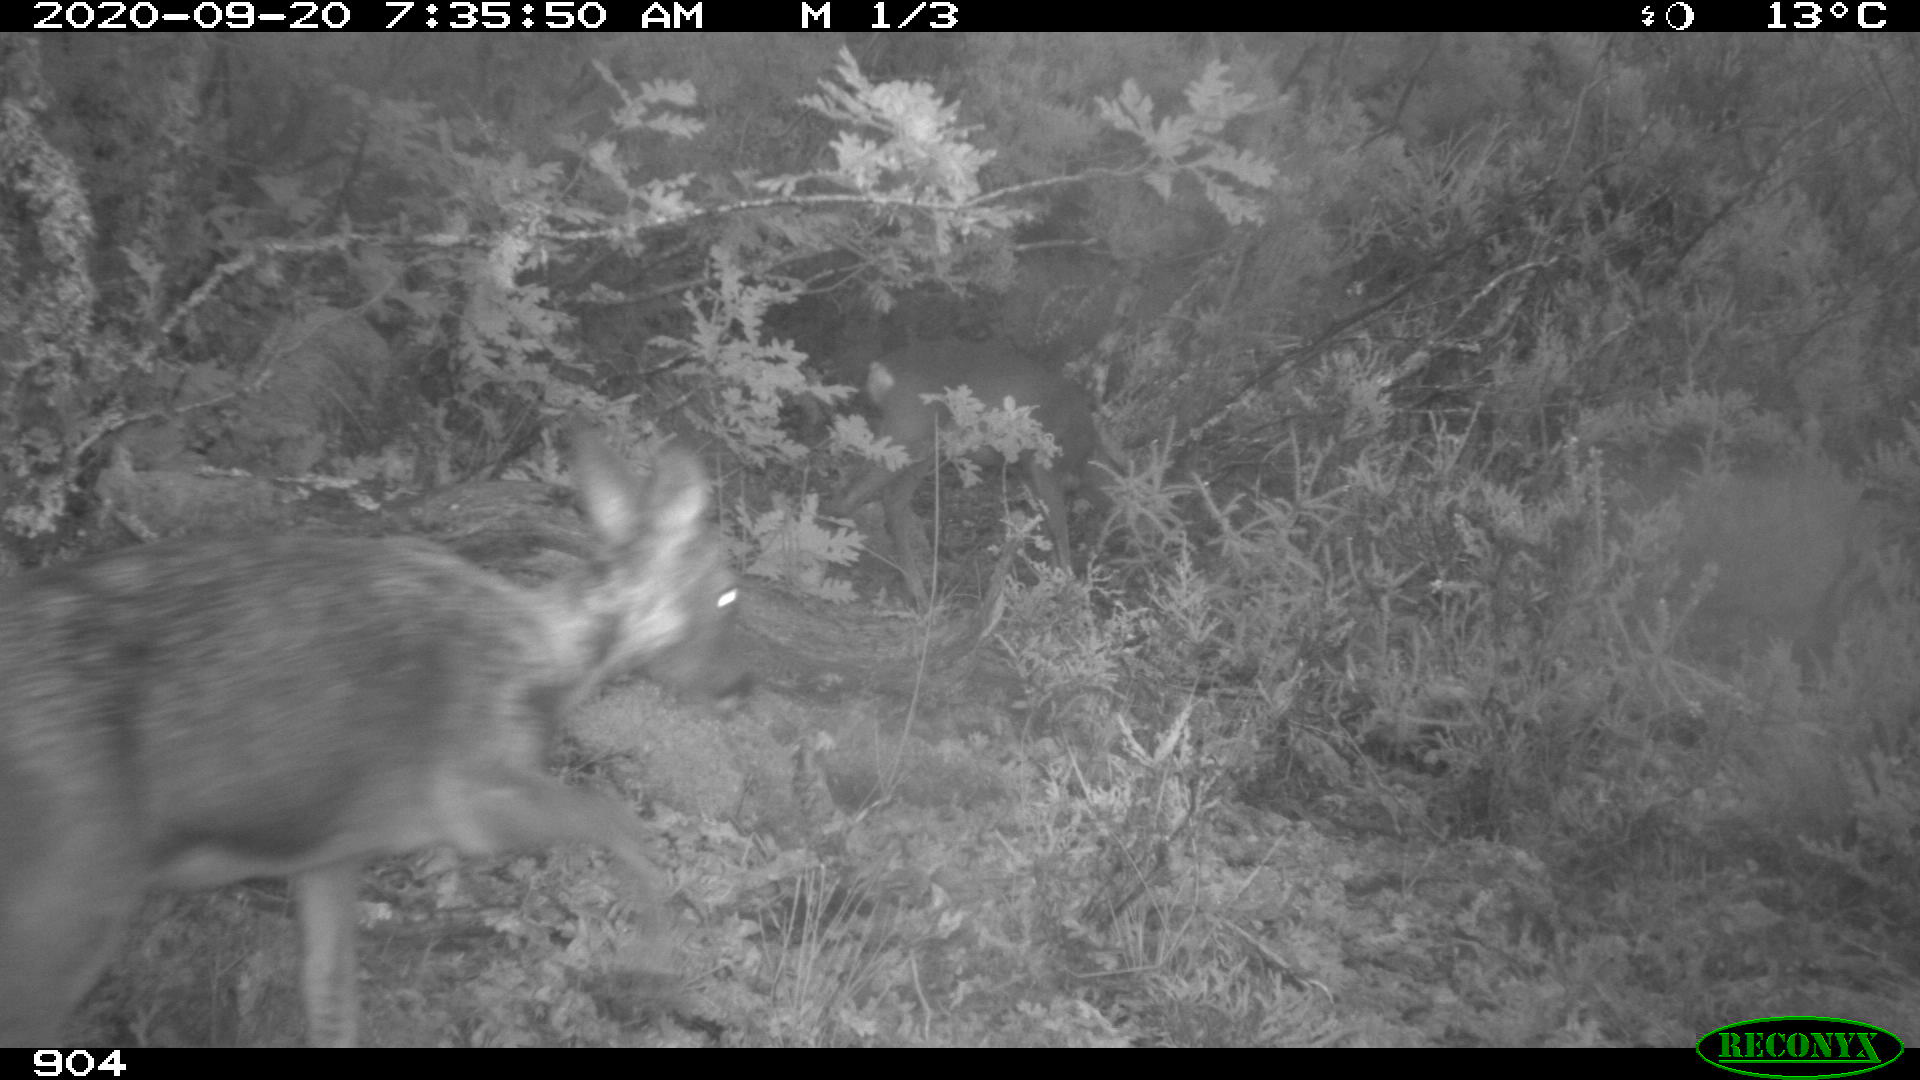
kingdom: Animalia
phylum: Chordata
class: Mammalia
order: Artiodactyla
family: Cervidae
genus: Capreolus
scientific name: Capreolus capreolus
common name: Western roe deer
